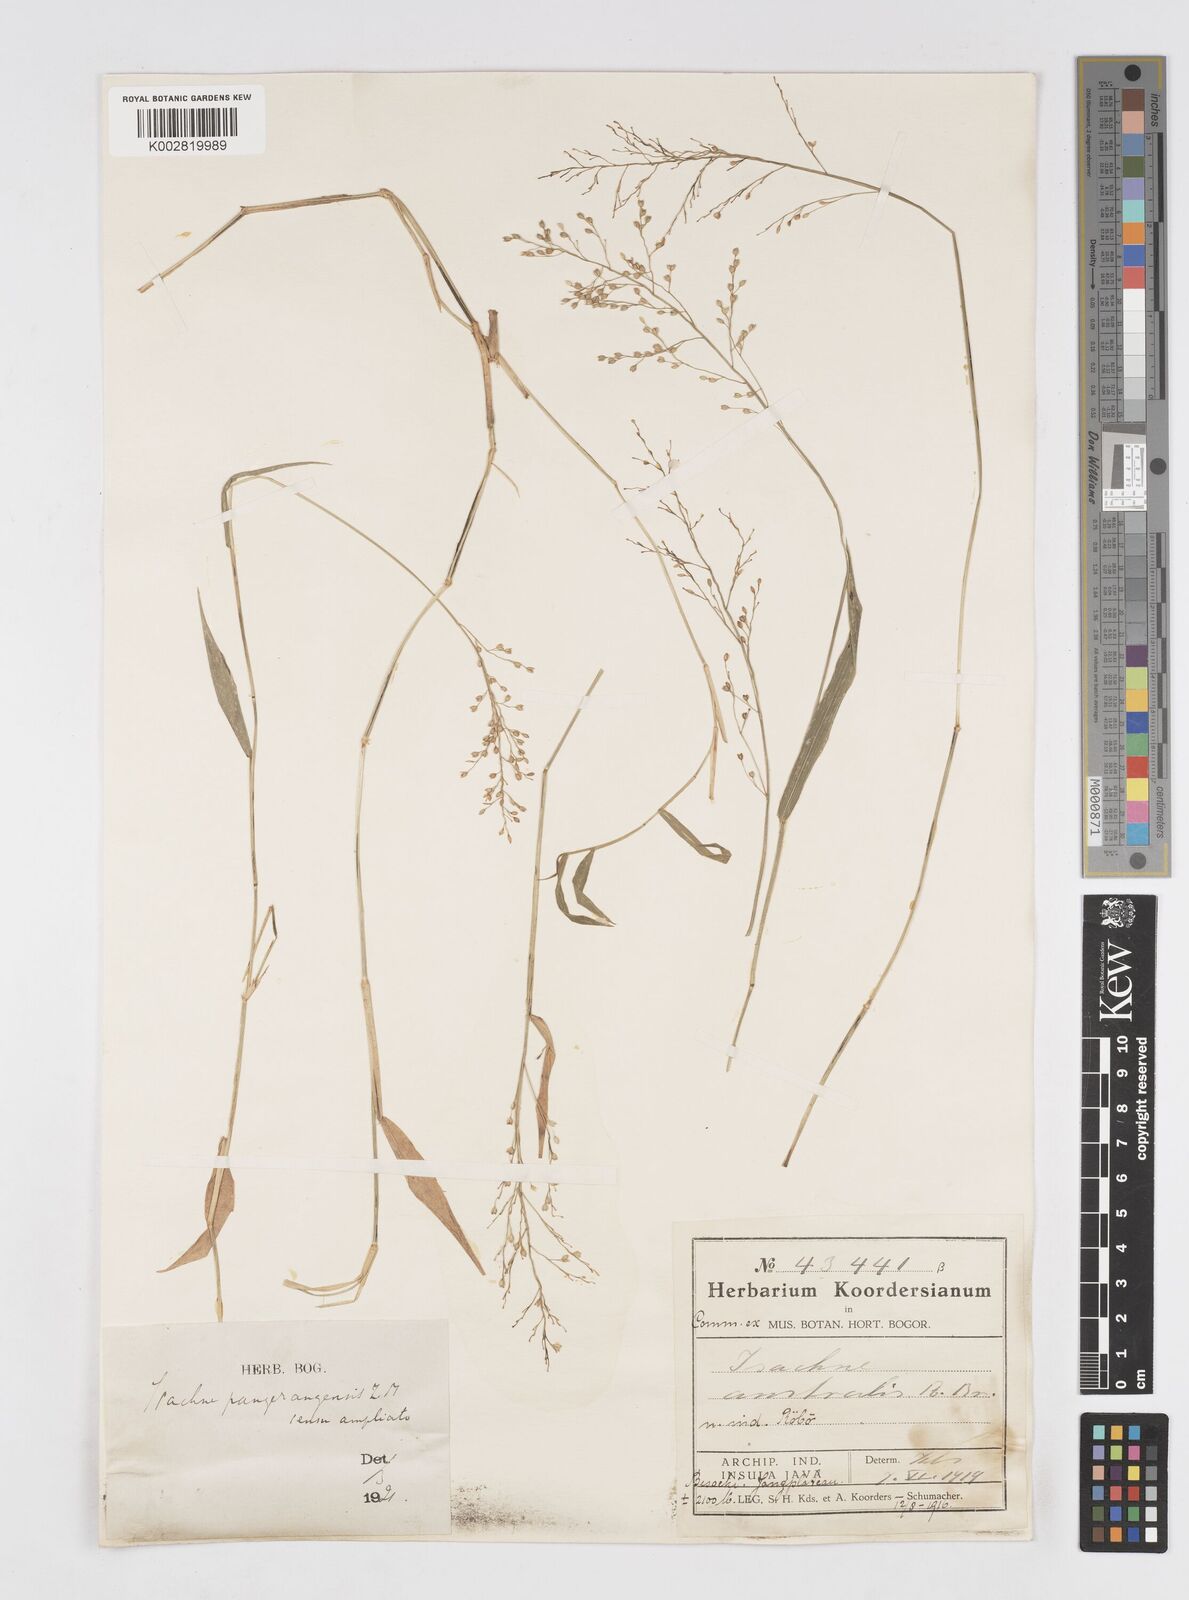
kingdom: Plantae
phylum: Tracheophyta
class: Liliopsida
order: Poales
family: Poaceae
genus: Isachne
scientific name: Isachne globosa
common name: Swamp millet
